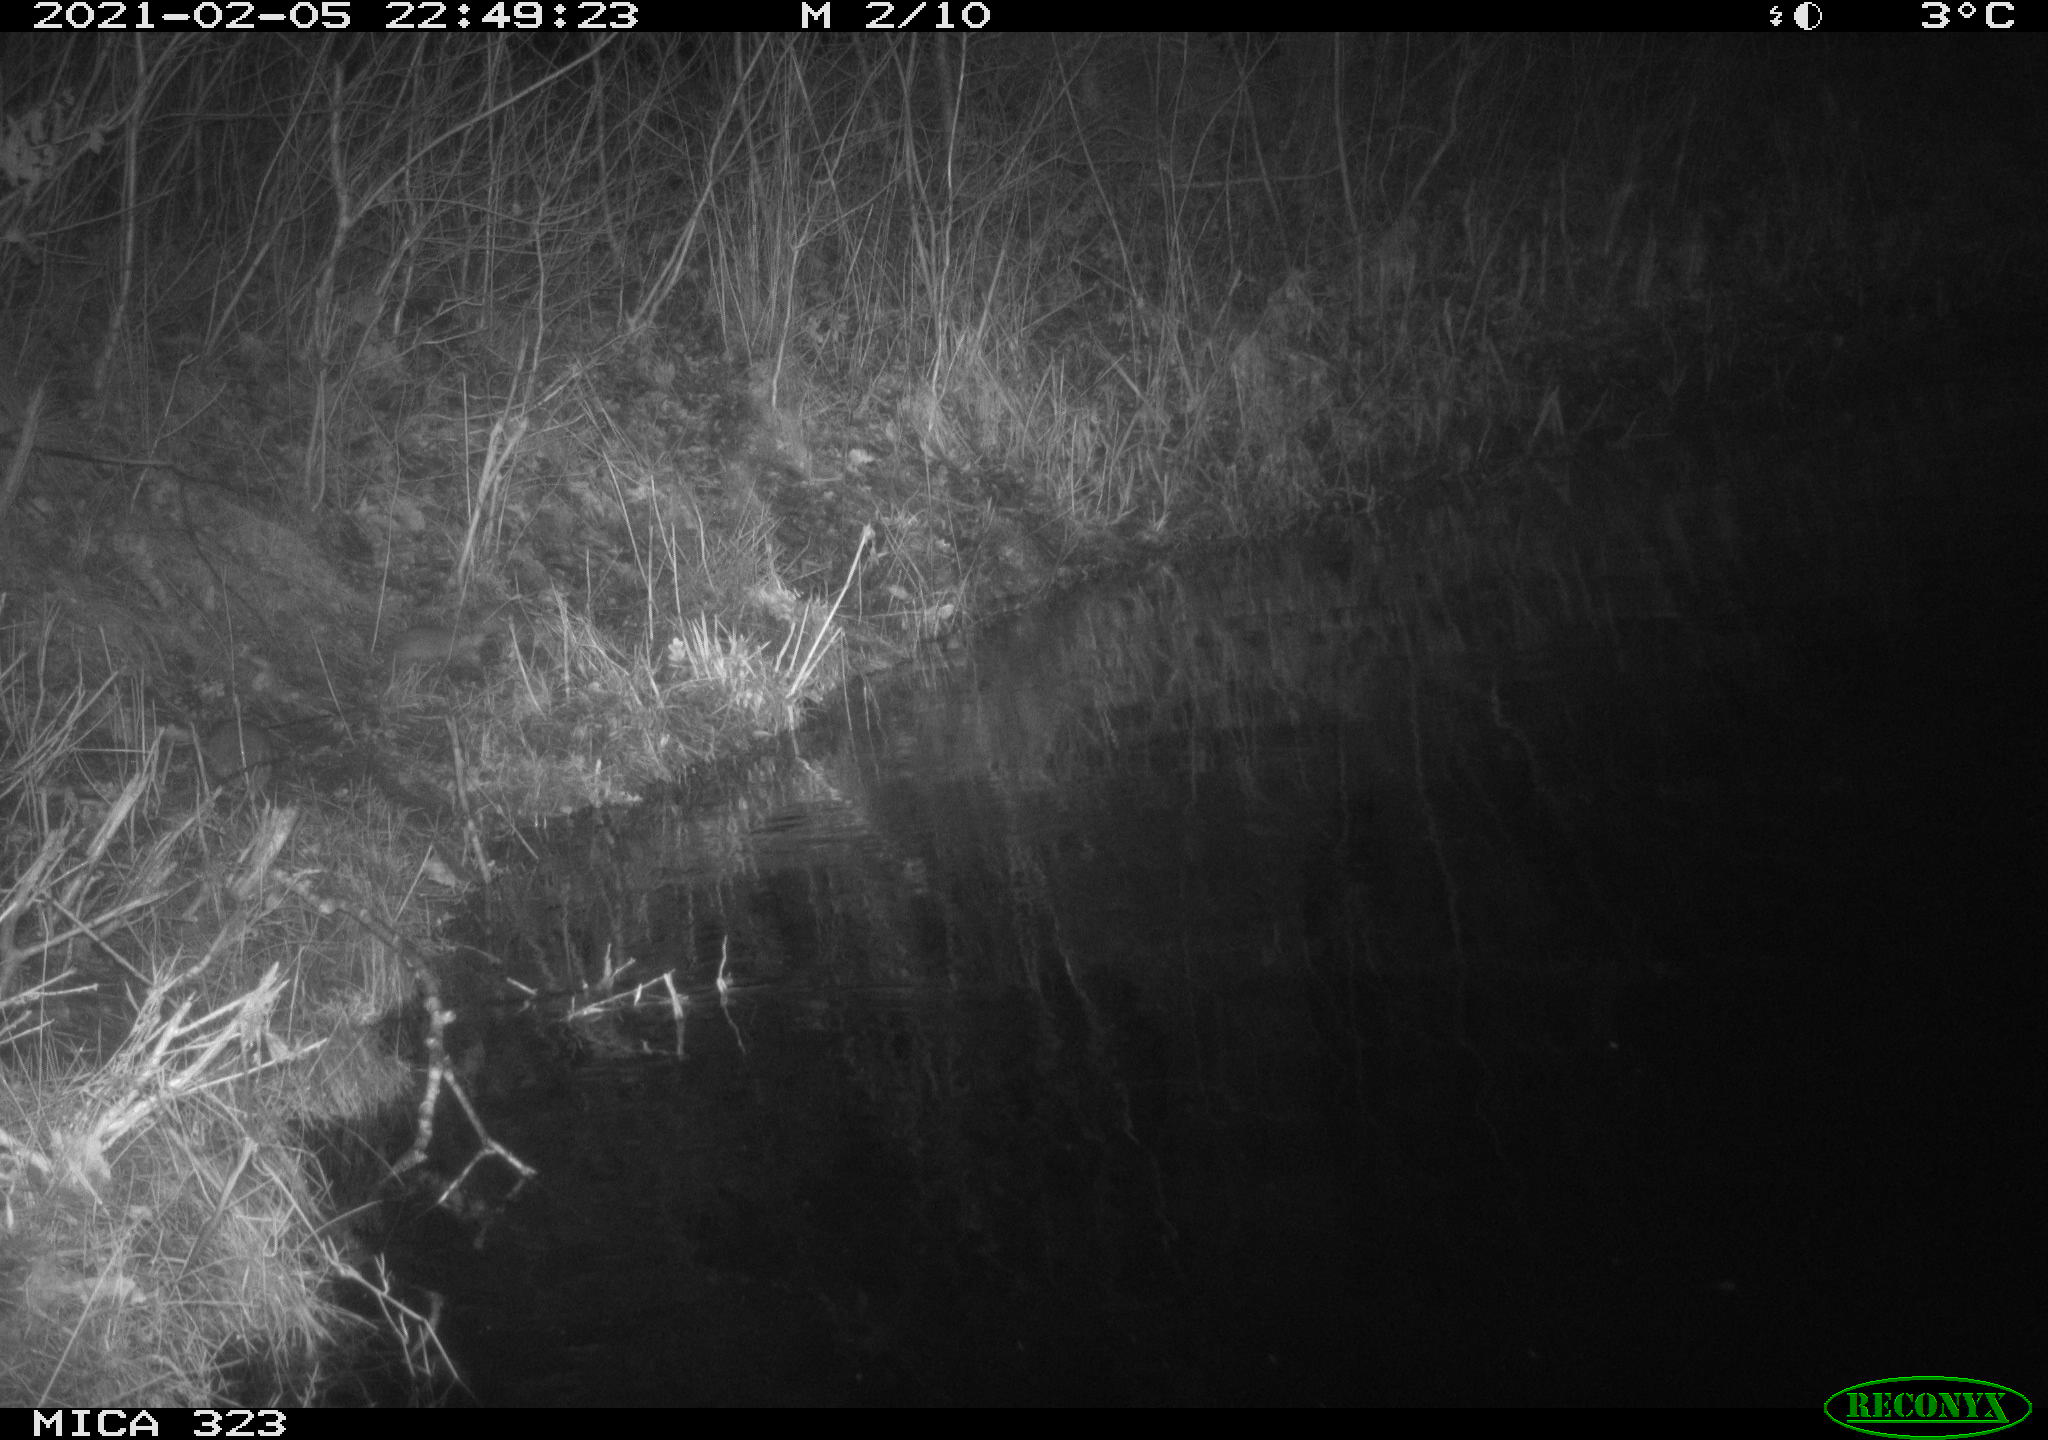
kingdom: Animalia
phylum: Chordata
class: Mammalia
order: Rodentia
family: Muridae
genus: Rattus
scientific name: Rattus norvegicus
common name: Brown rat
